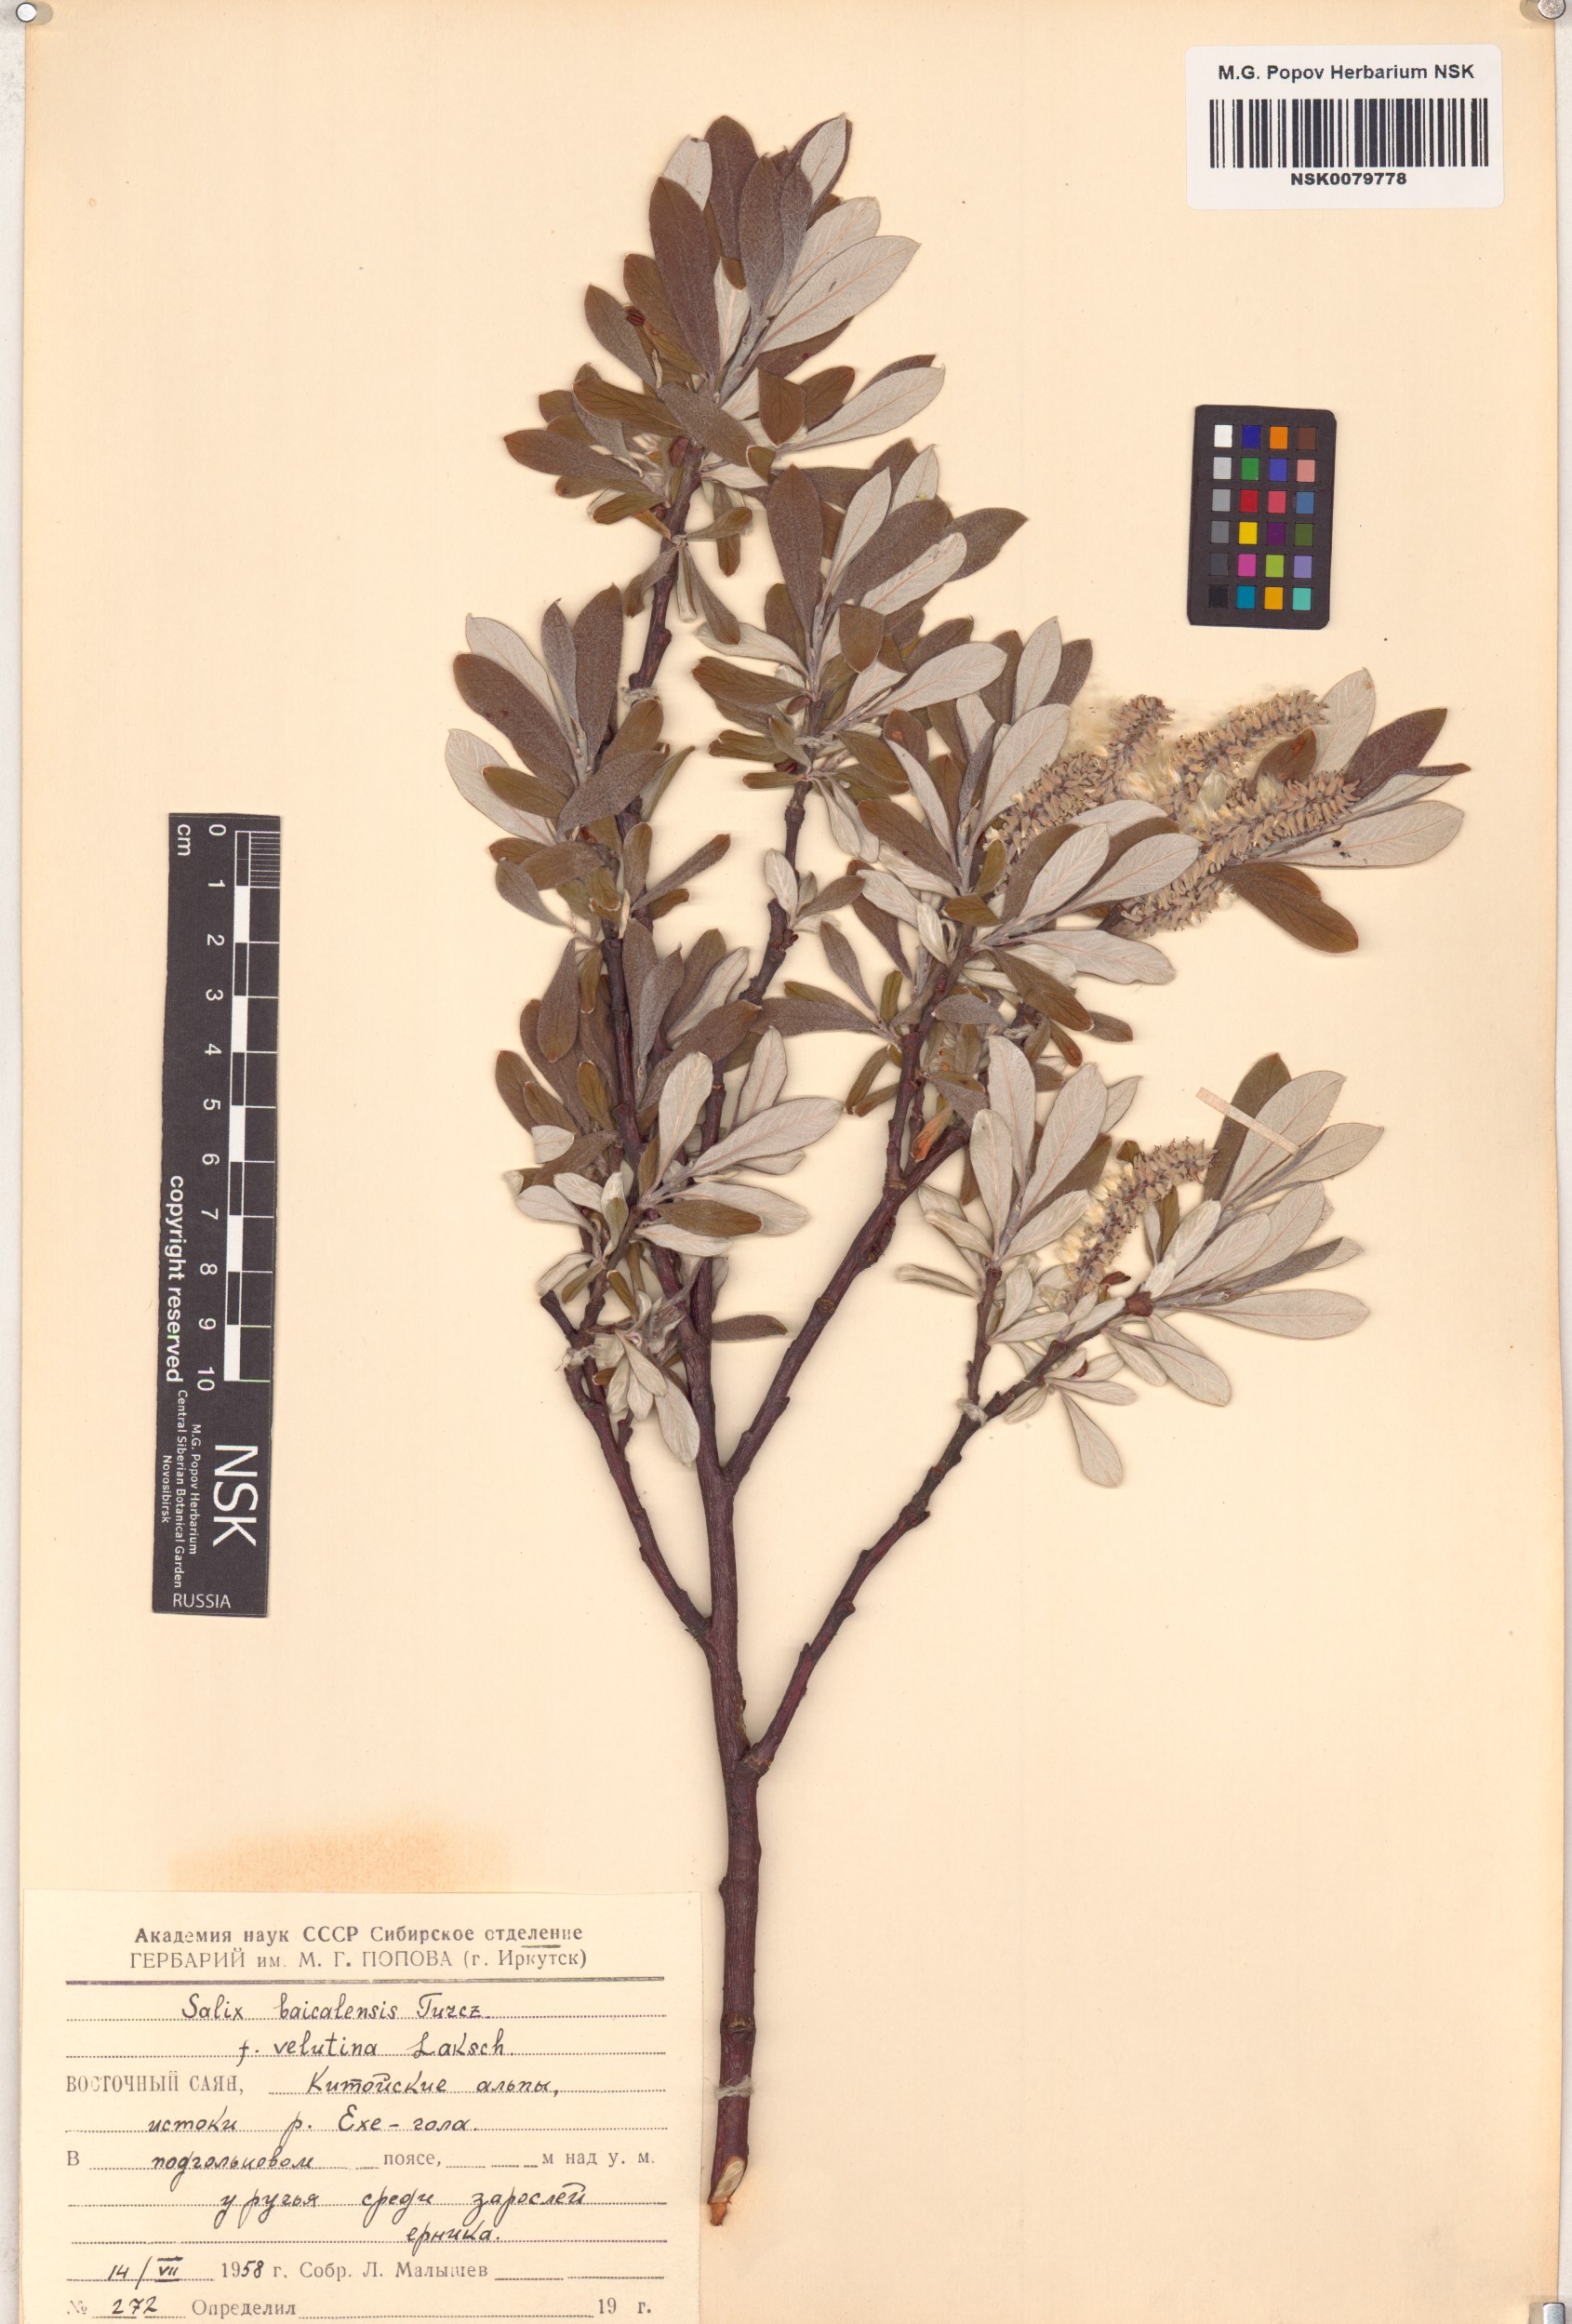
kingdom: Plantae
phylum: Tracheophyta
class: Magnoliopsida
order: Malpighiales
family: Salicaceae
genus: Salix
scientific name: Salix krylovii
